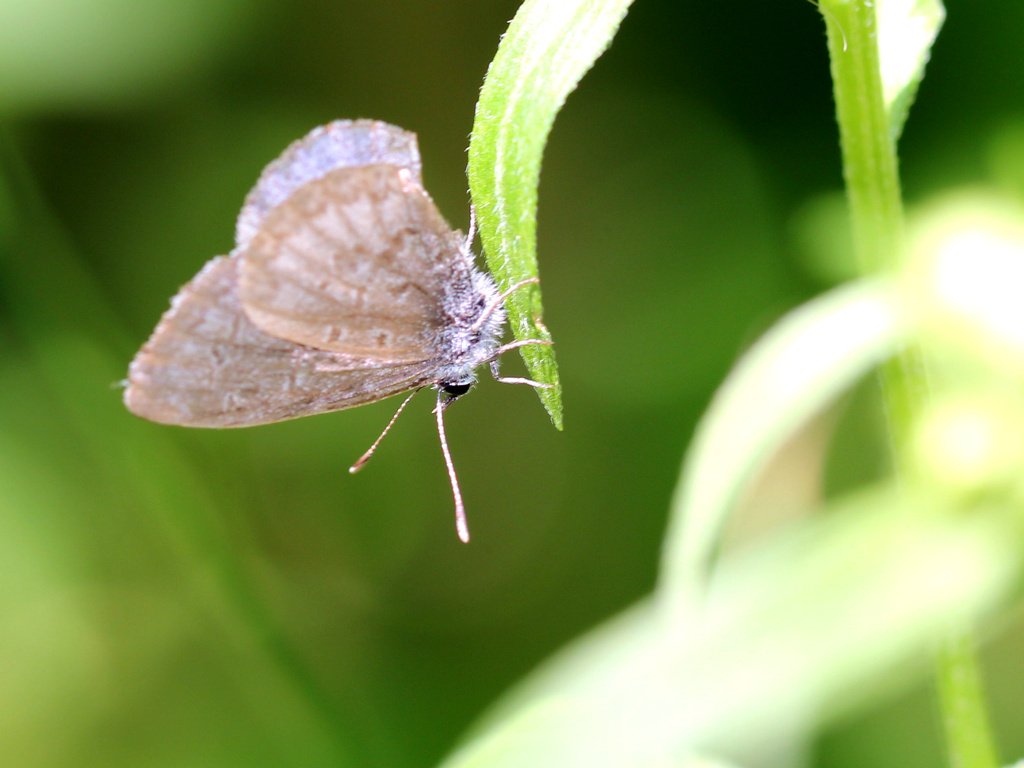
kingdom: Animalia
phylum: Arthropoda
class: Insecta
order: Lepidoptera
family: Lycaenidae
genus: Celastrina
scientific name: Celastrina lucia
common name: Northern Spring Azure
